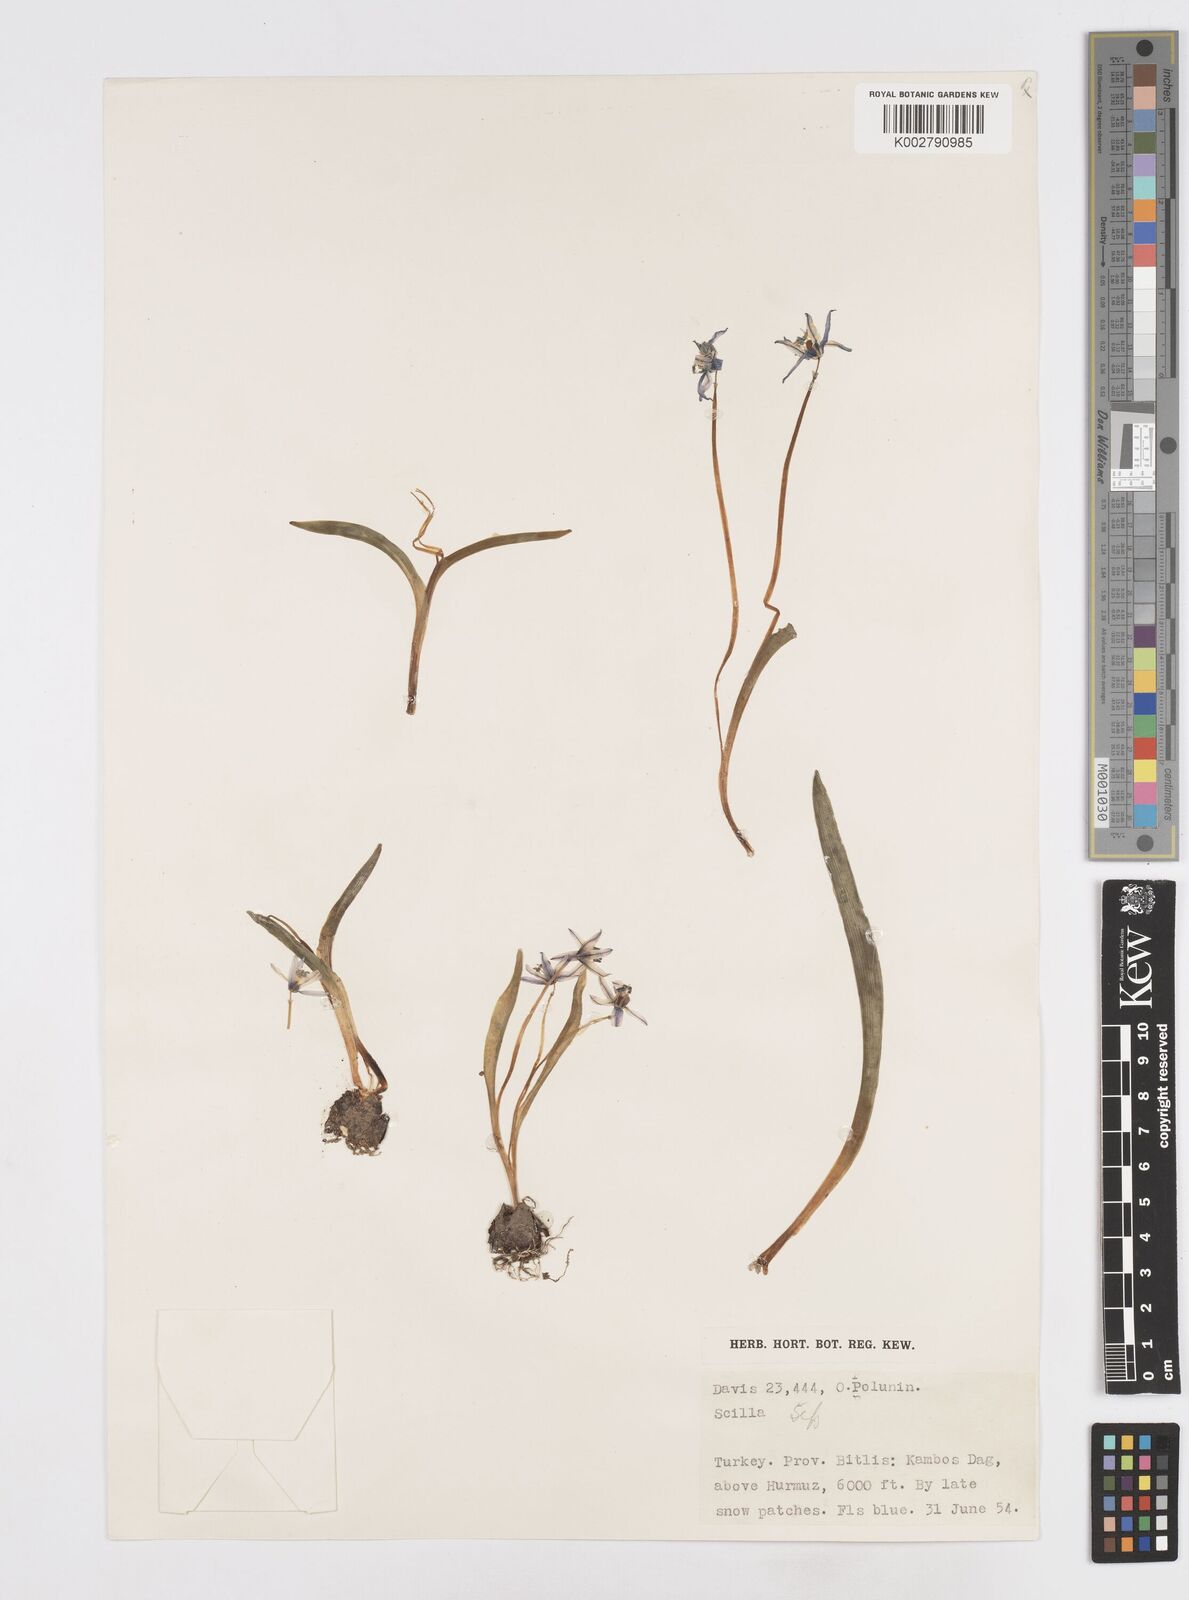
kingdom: Plantae
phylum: Tracheophyta
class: Liliopsida
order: Asparagales
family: Asparagaceae
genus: Scilla
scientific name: Scilla
